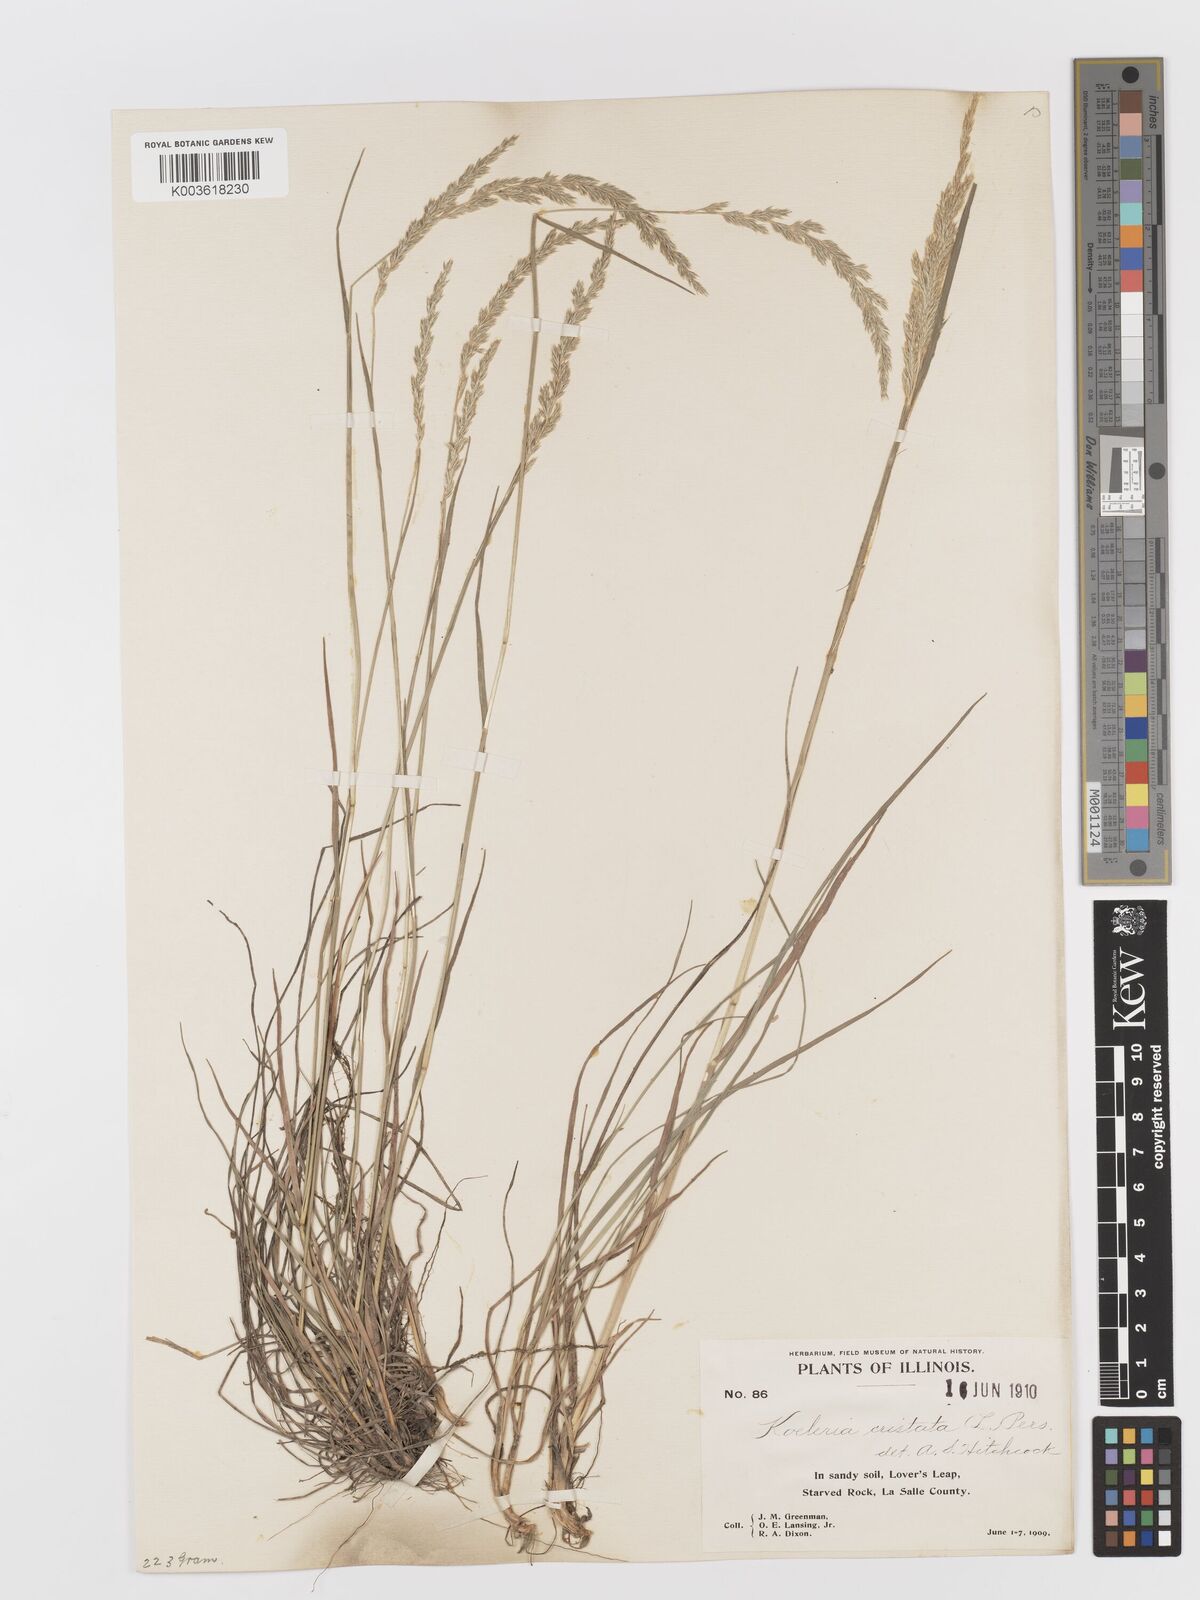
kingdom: Plantae
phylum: Tracheophyta
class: Liliopsida
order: Poales
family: Poaceae
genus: Koeleria
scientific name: Koeleria macrantha
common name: Crested hair-grass
